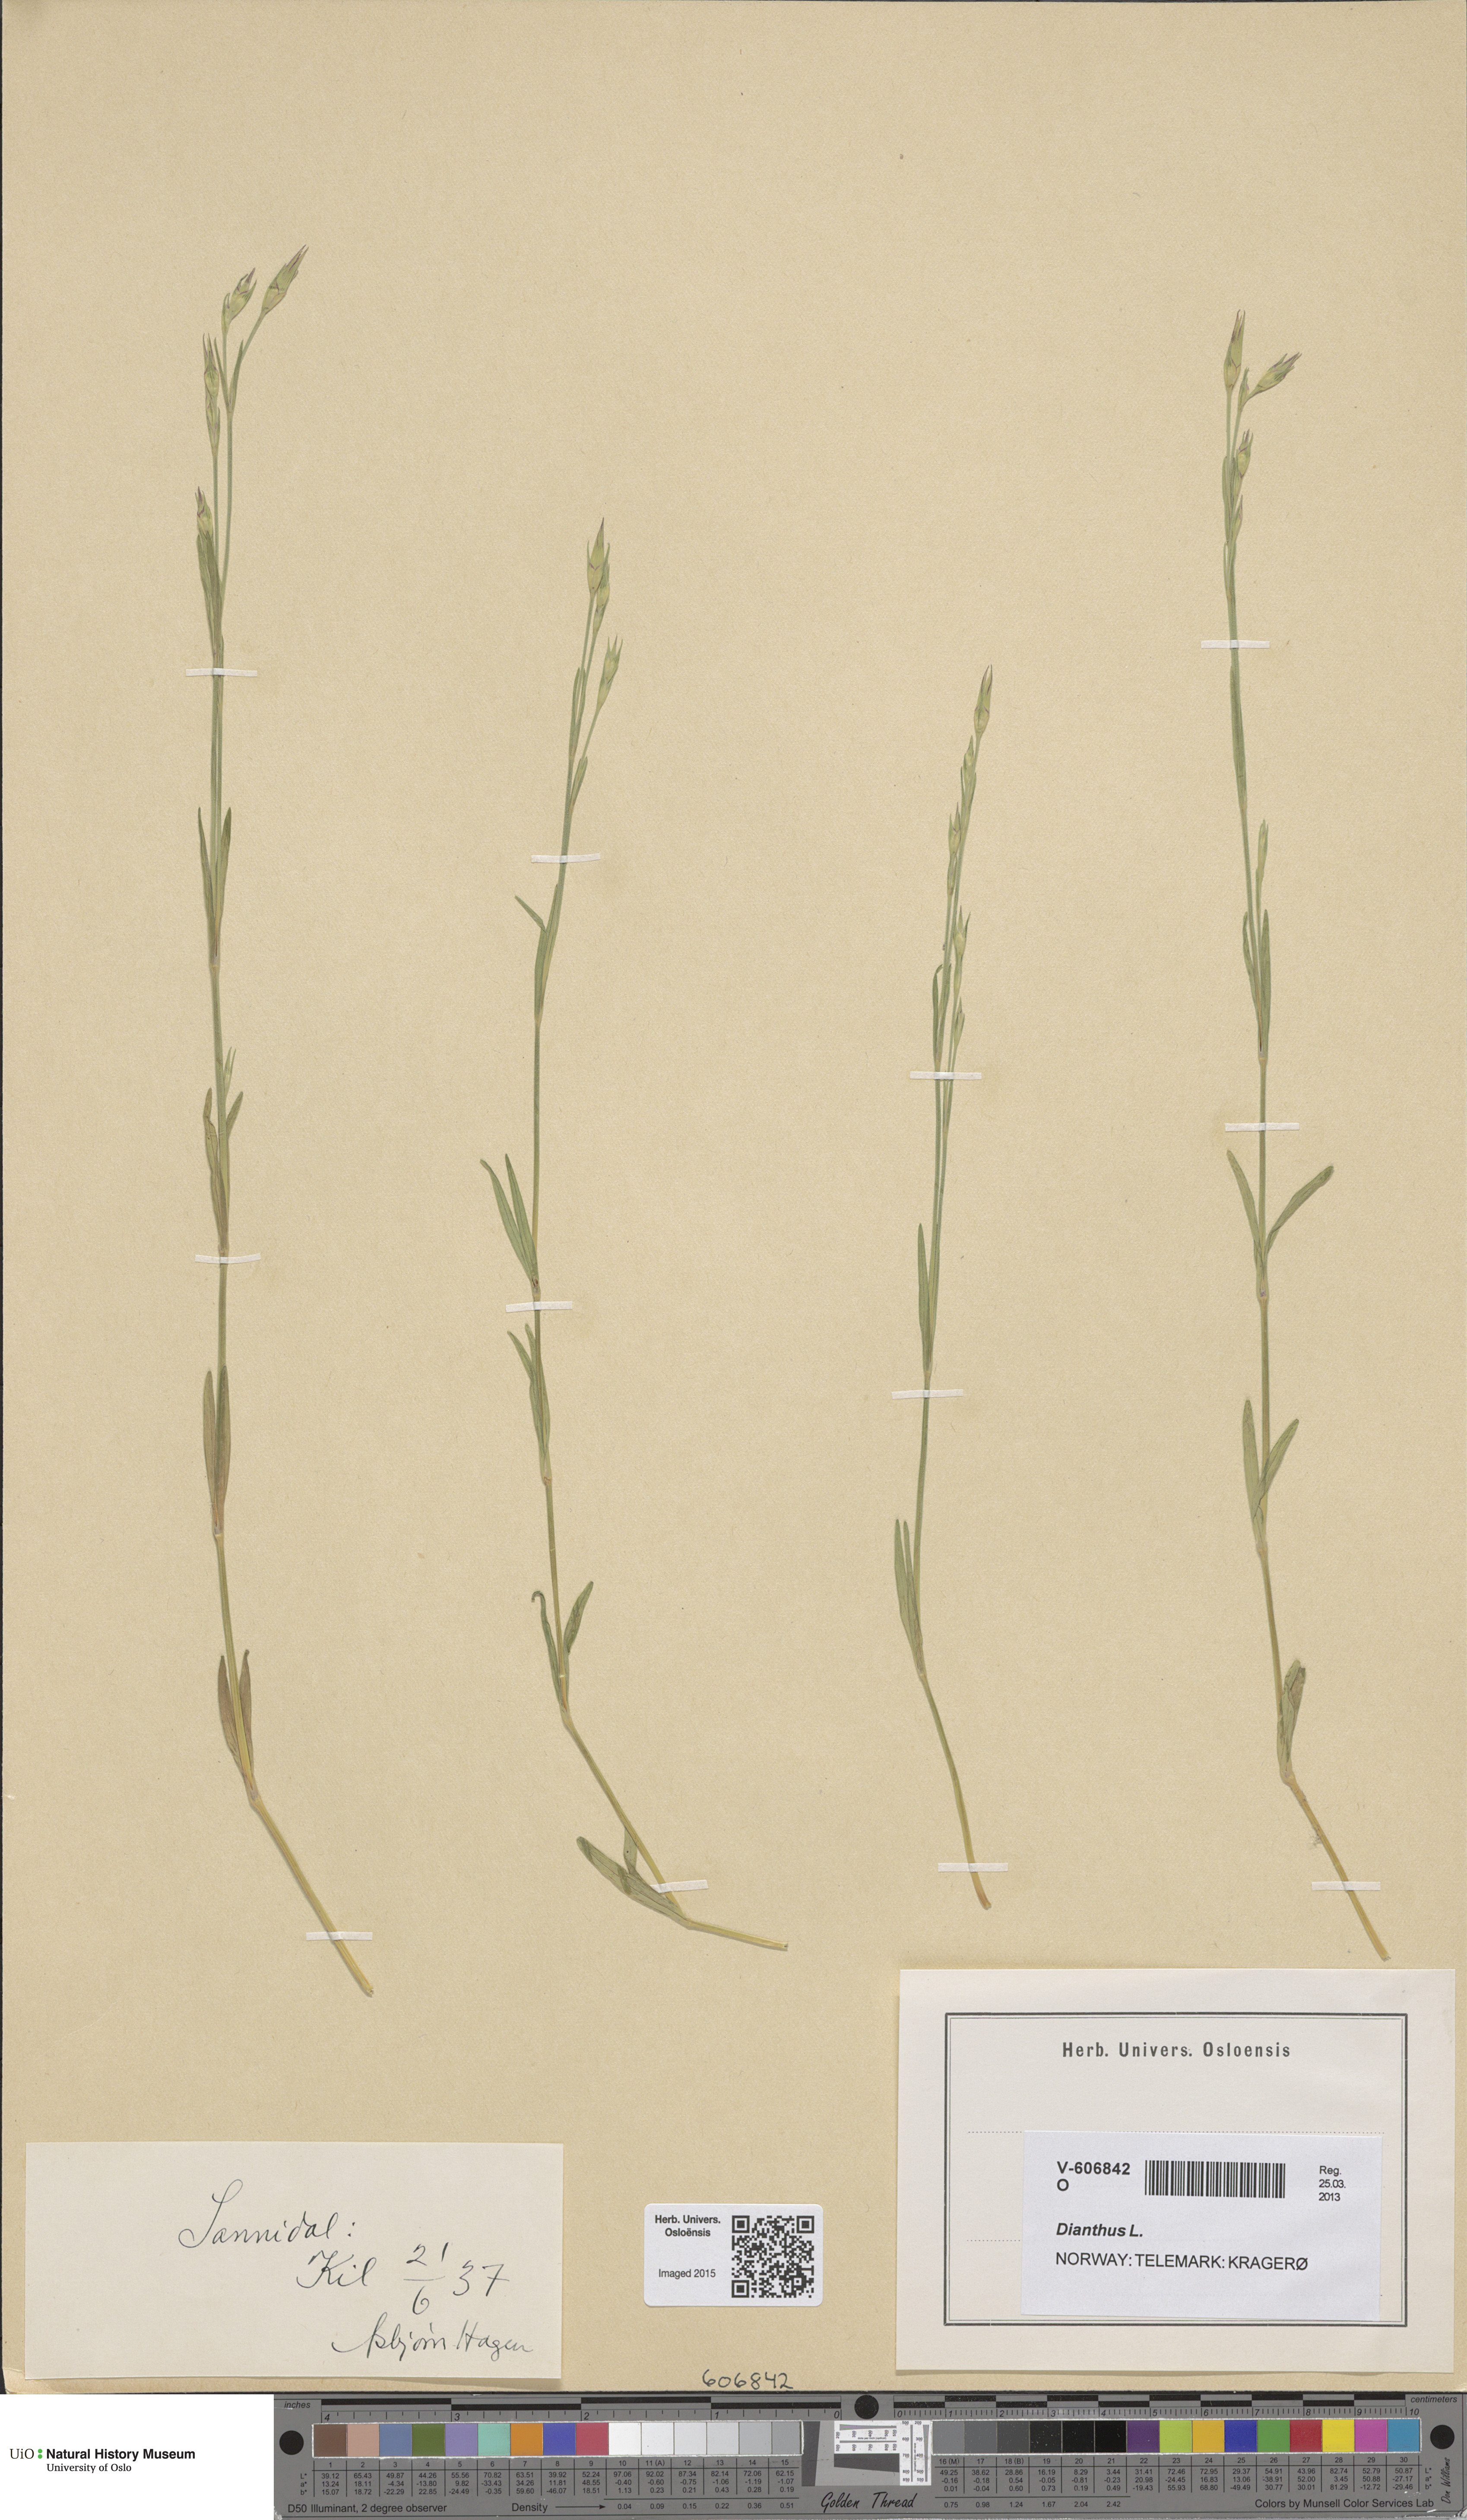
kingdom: Plantae
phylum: Tracheophyta
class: Magnoliopsida
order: Caryophyllales
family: Caryophyllaceae
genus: Dianthus
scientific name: Dianthus
